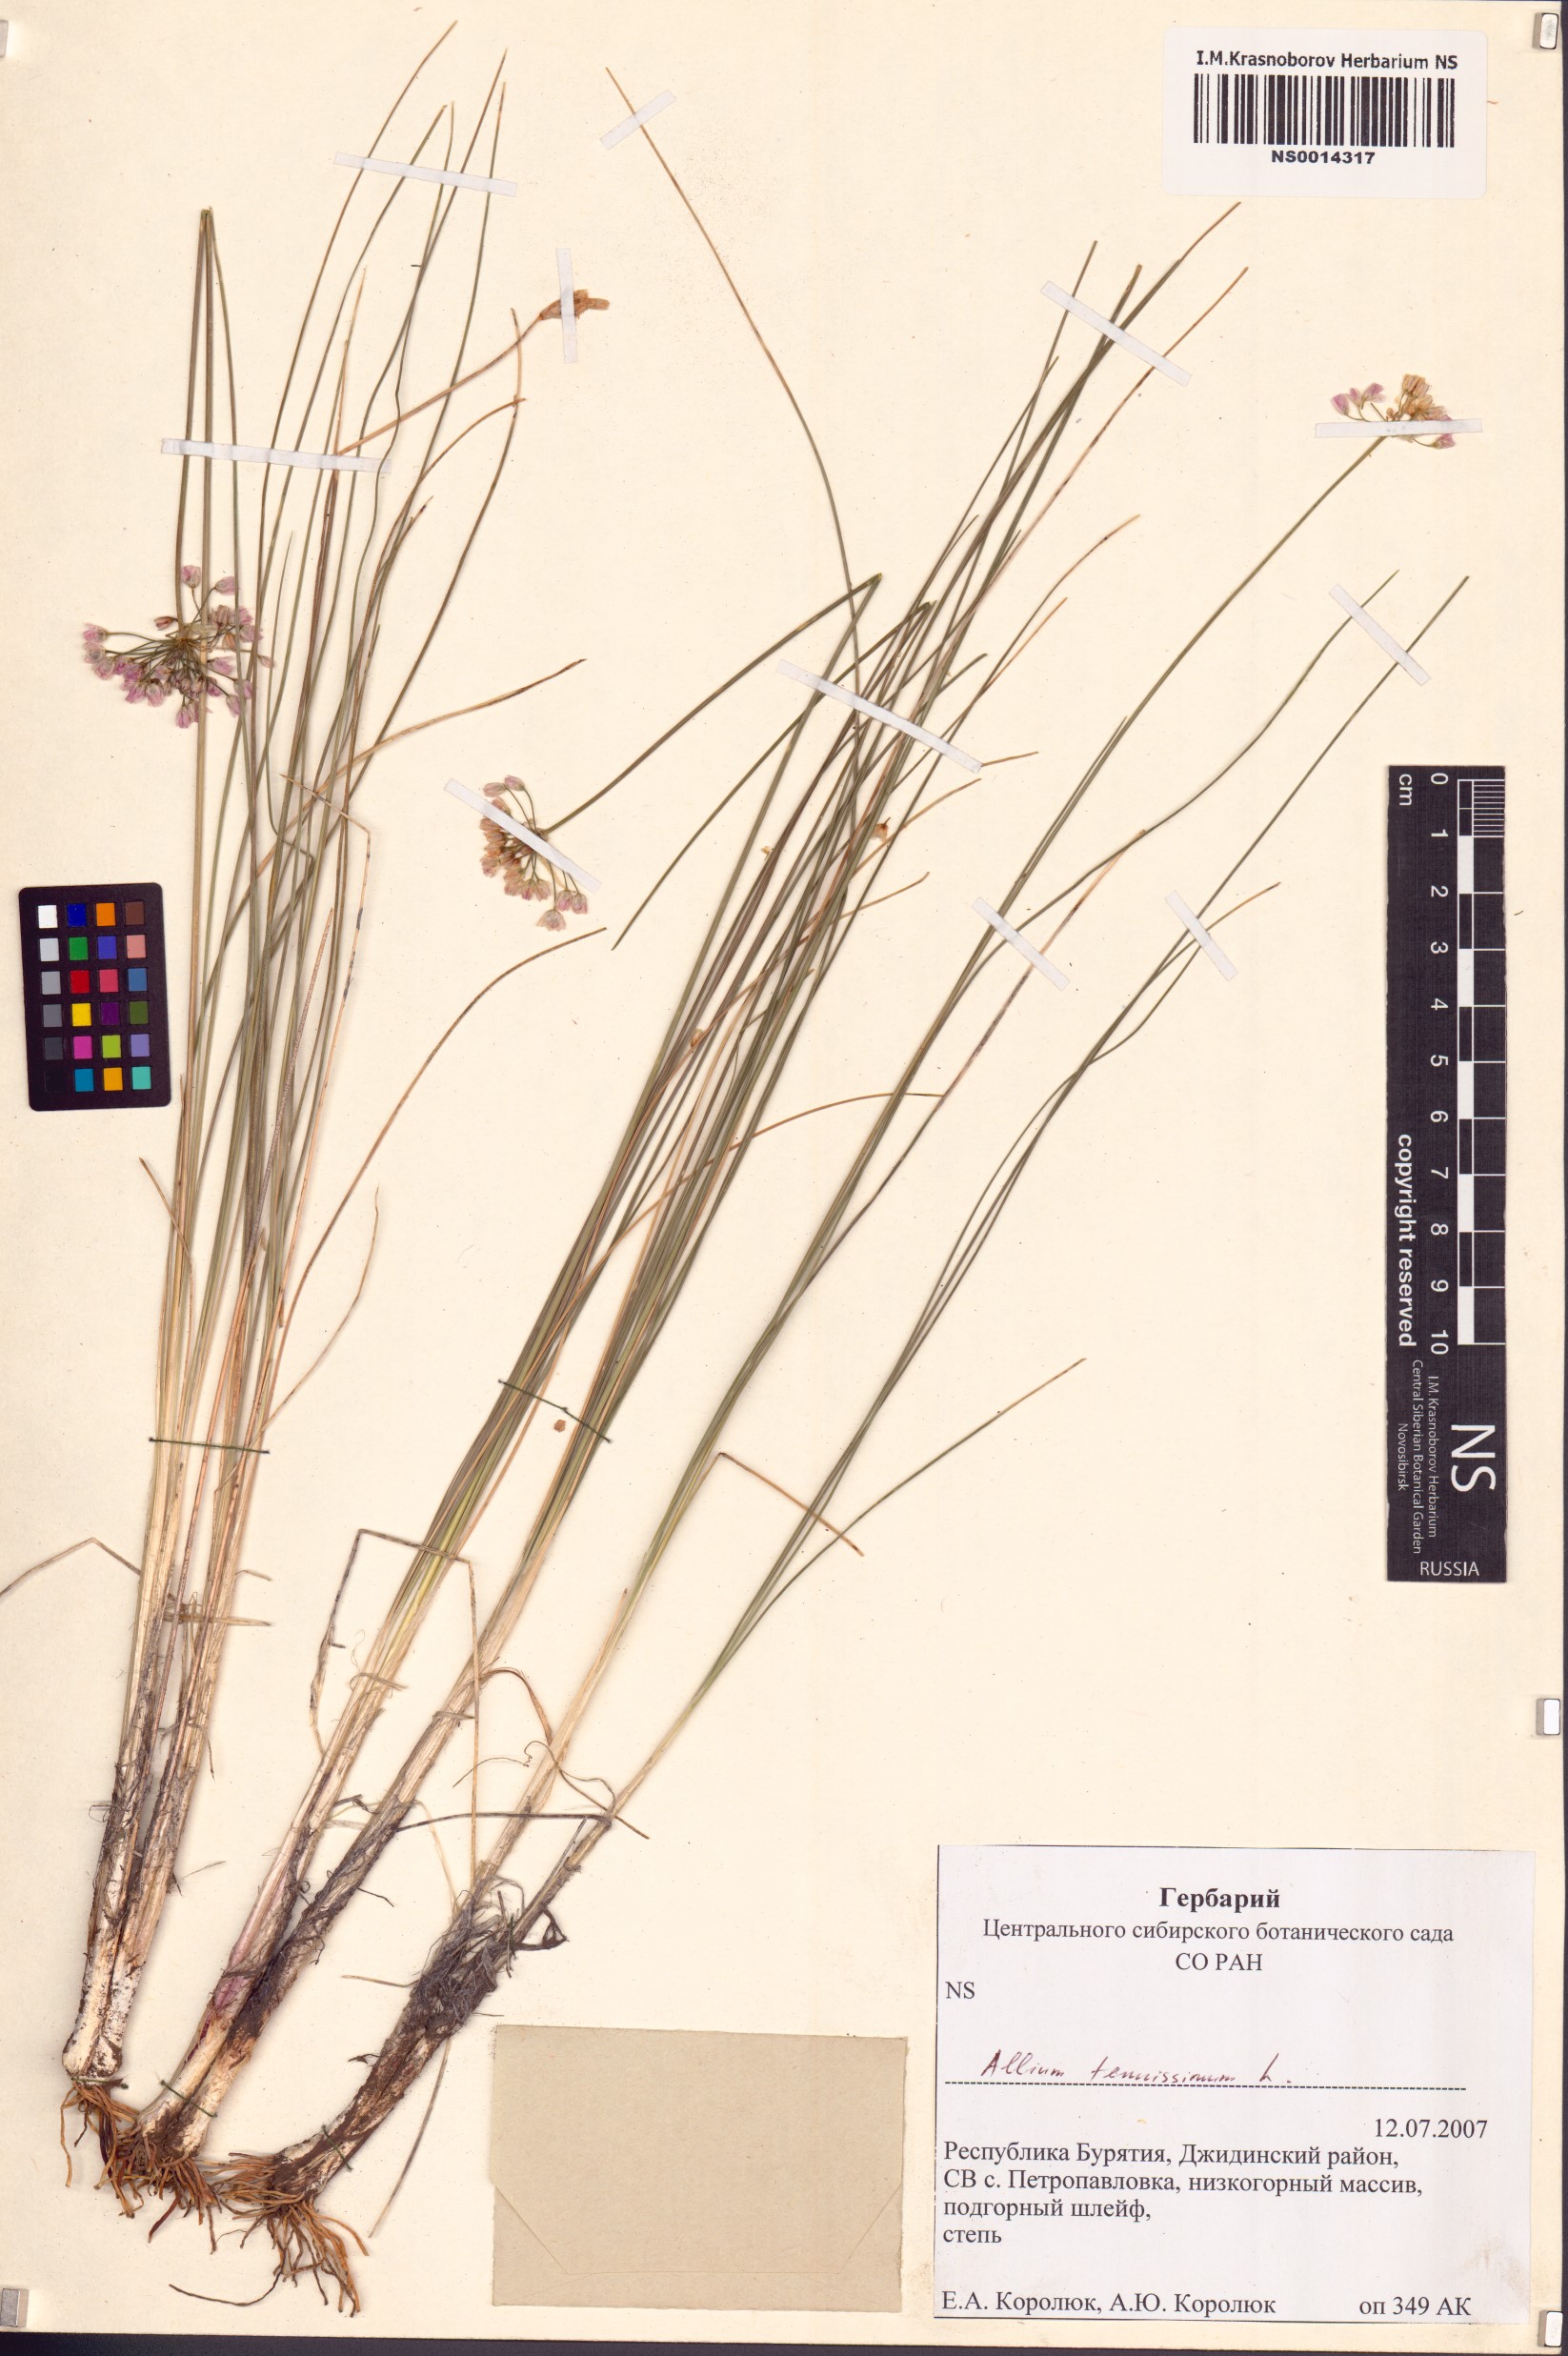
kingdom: Plantae
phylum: Tracheophyta
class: Liliopsida
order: Asparagales
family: Amaryllidaceae
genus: Allium
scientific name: Allium tenuissimum
